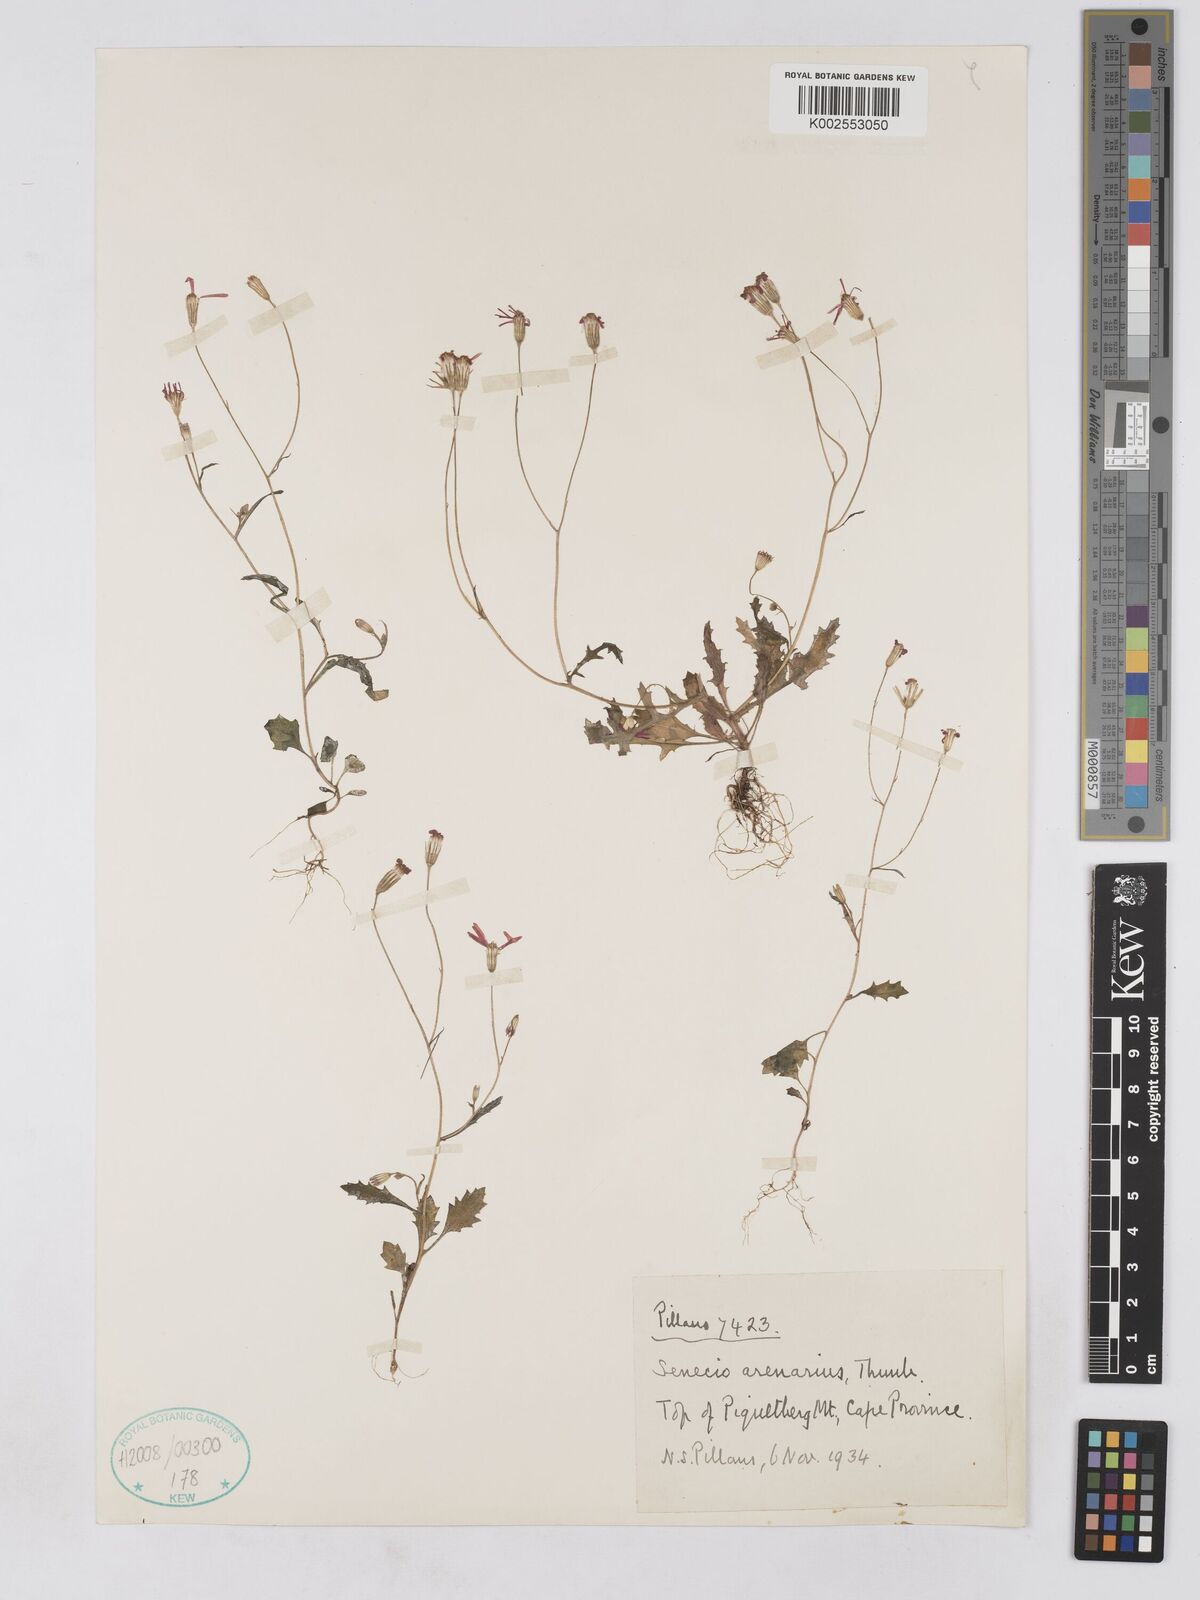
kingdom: Plantae
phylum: Tracheophyta
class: Magnoliopsida
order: Asterales
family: Asteraceae
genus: Senecio
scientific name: Senecio arenarius
